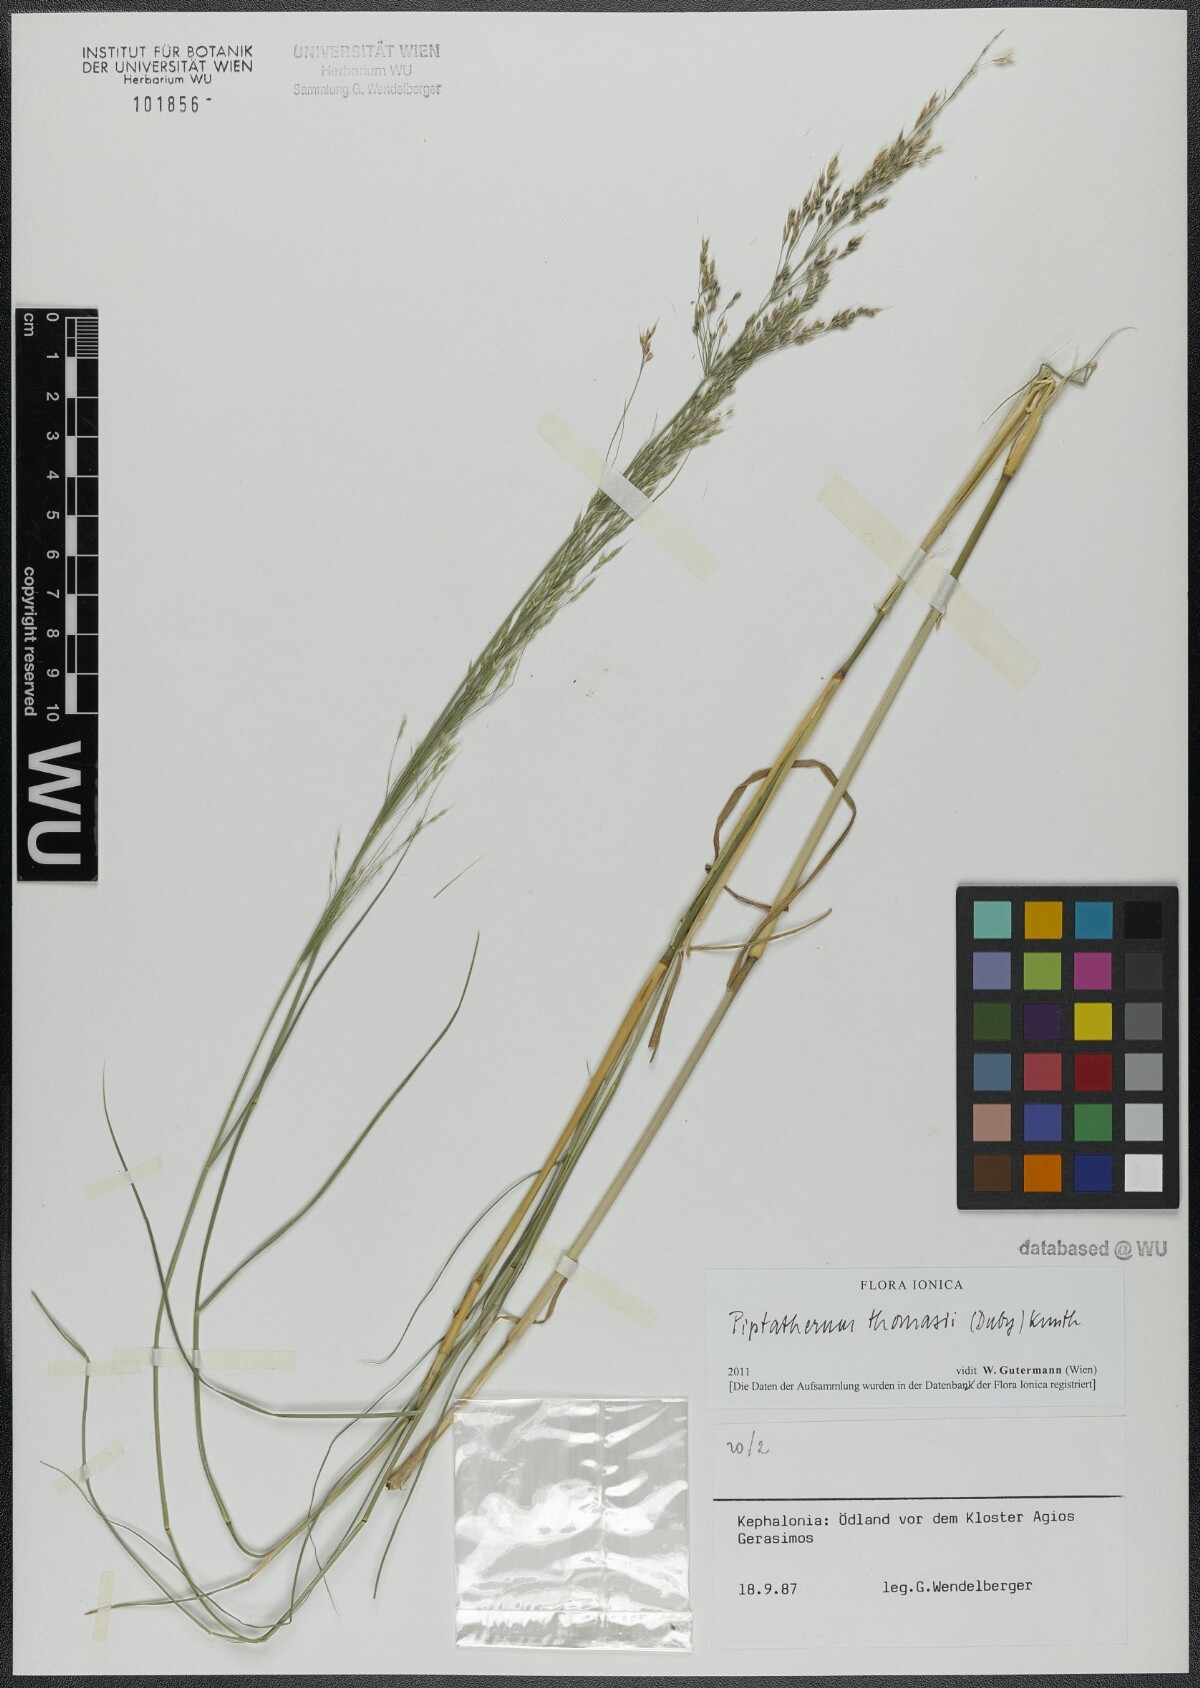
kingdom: Plantae
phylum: Tracheophyta
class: Liliopsida
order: Poales
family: Poaceae
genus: Oloptum
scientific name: Oloptum thomasii
